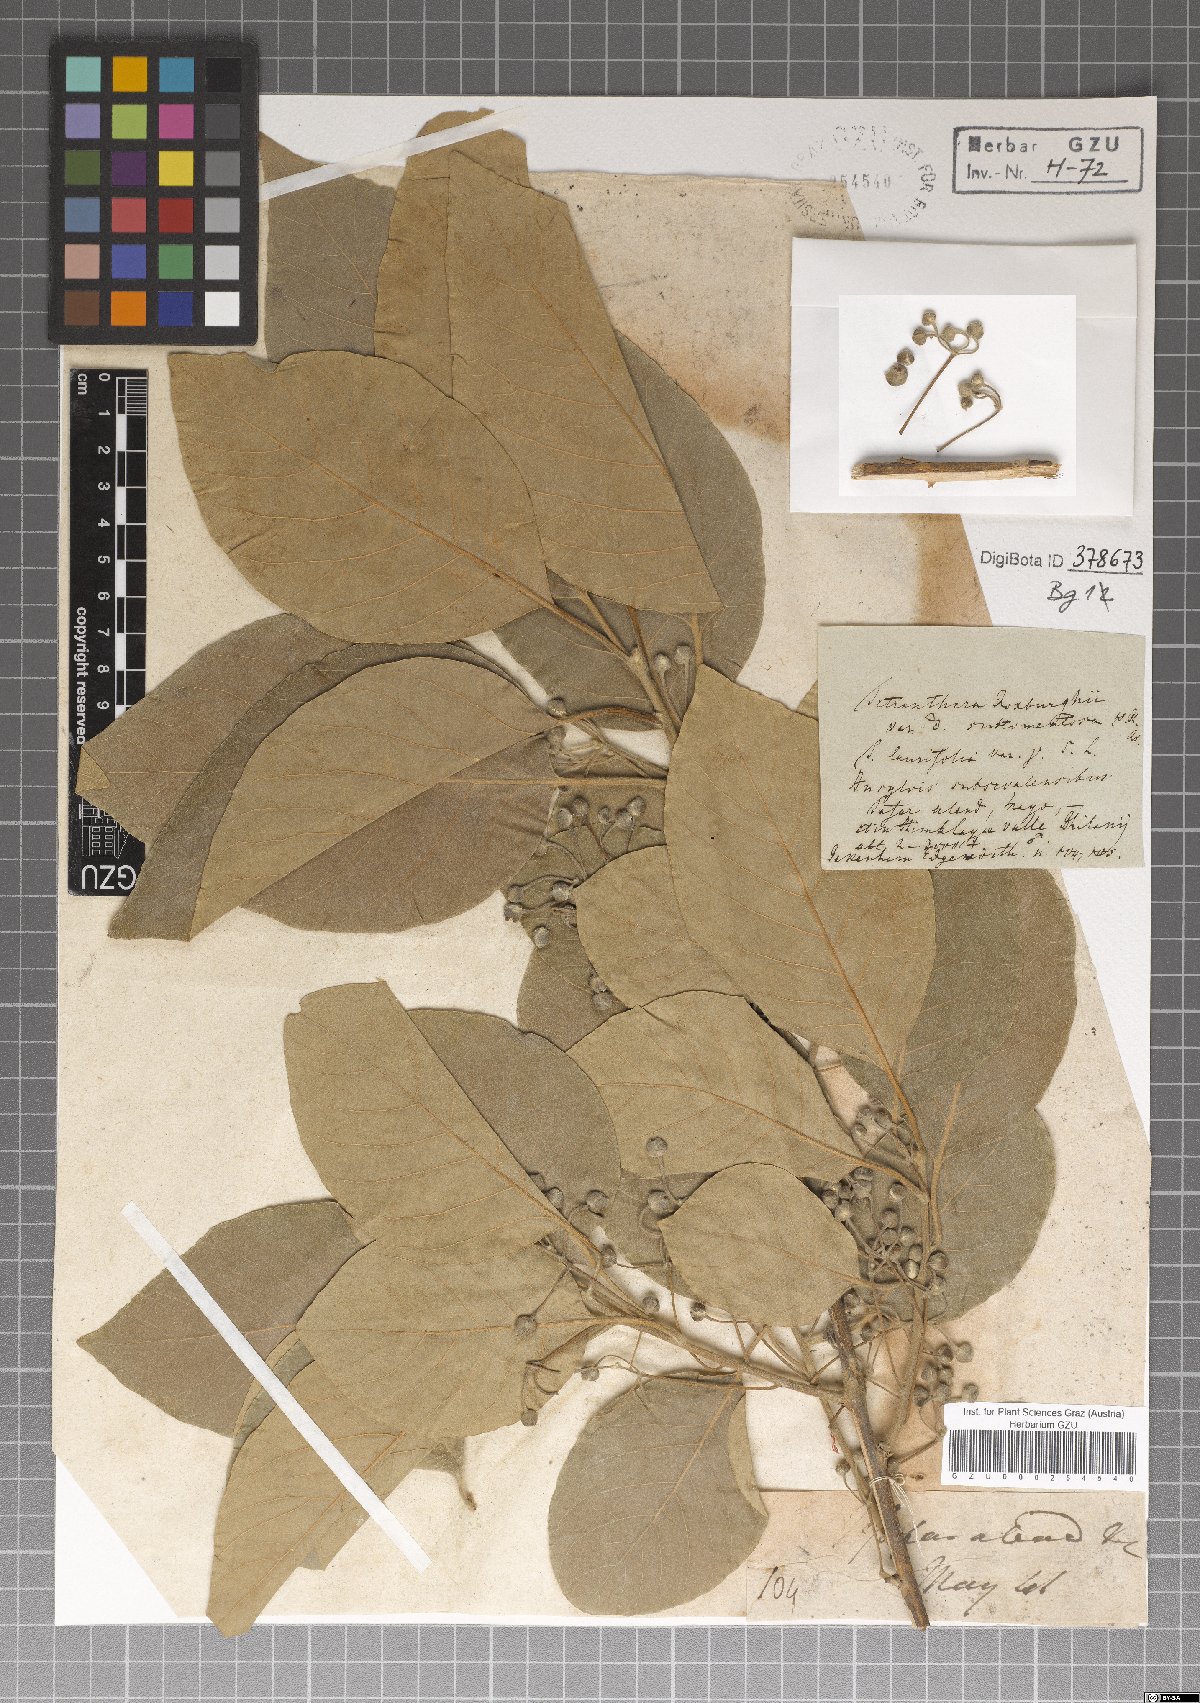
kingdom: Plantae
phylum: Tracheophyta
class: Magnoliopsida
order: Laurales
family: Lauraceae
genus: Litsea
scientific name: Litsea glutinosa
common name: Indian-laurel
